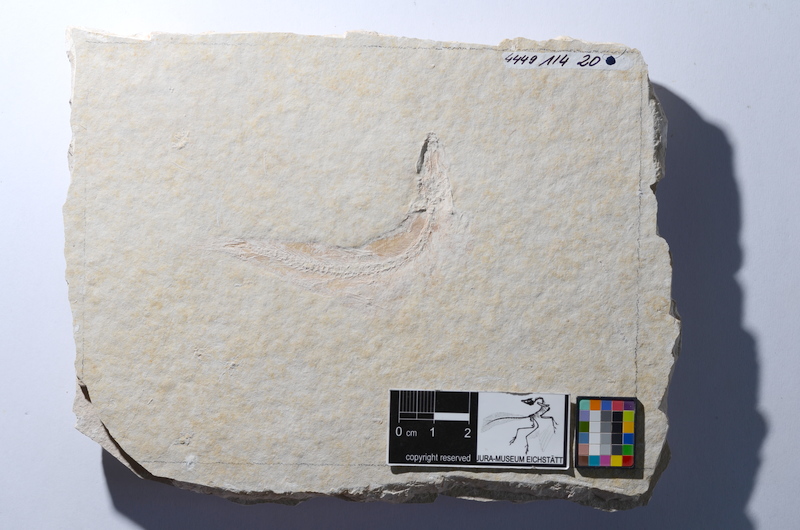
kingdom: Animalia
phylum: Chordata
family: Ascalaboidae
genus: Tharsis
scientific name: Tharsis dubius
